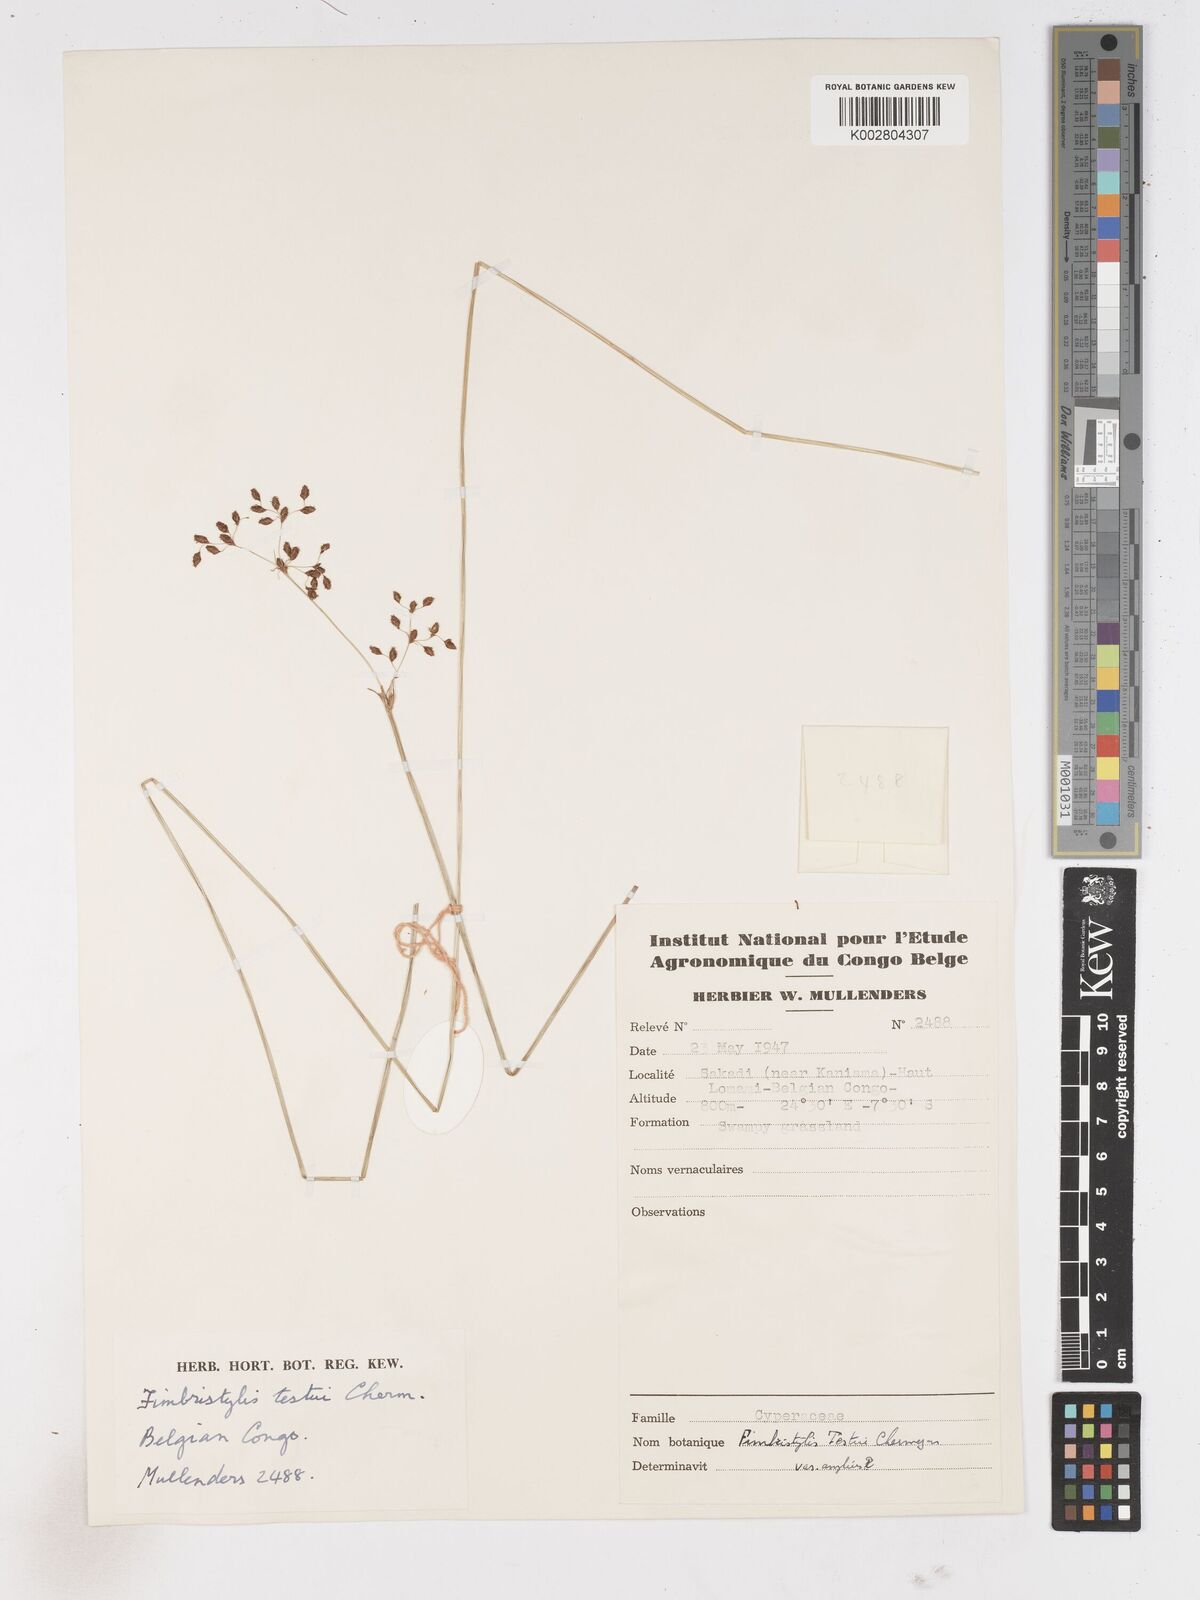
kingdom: Plantae
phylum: Tracheophyta
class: Liliopsida
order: Poales
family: Cyperaceae
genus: Fimbristylis
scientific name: Fimbristylis aphylla
